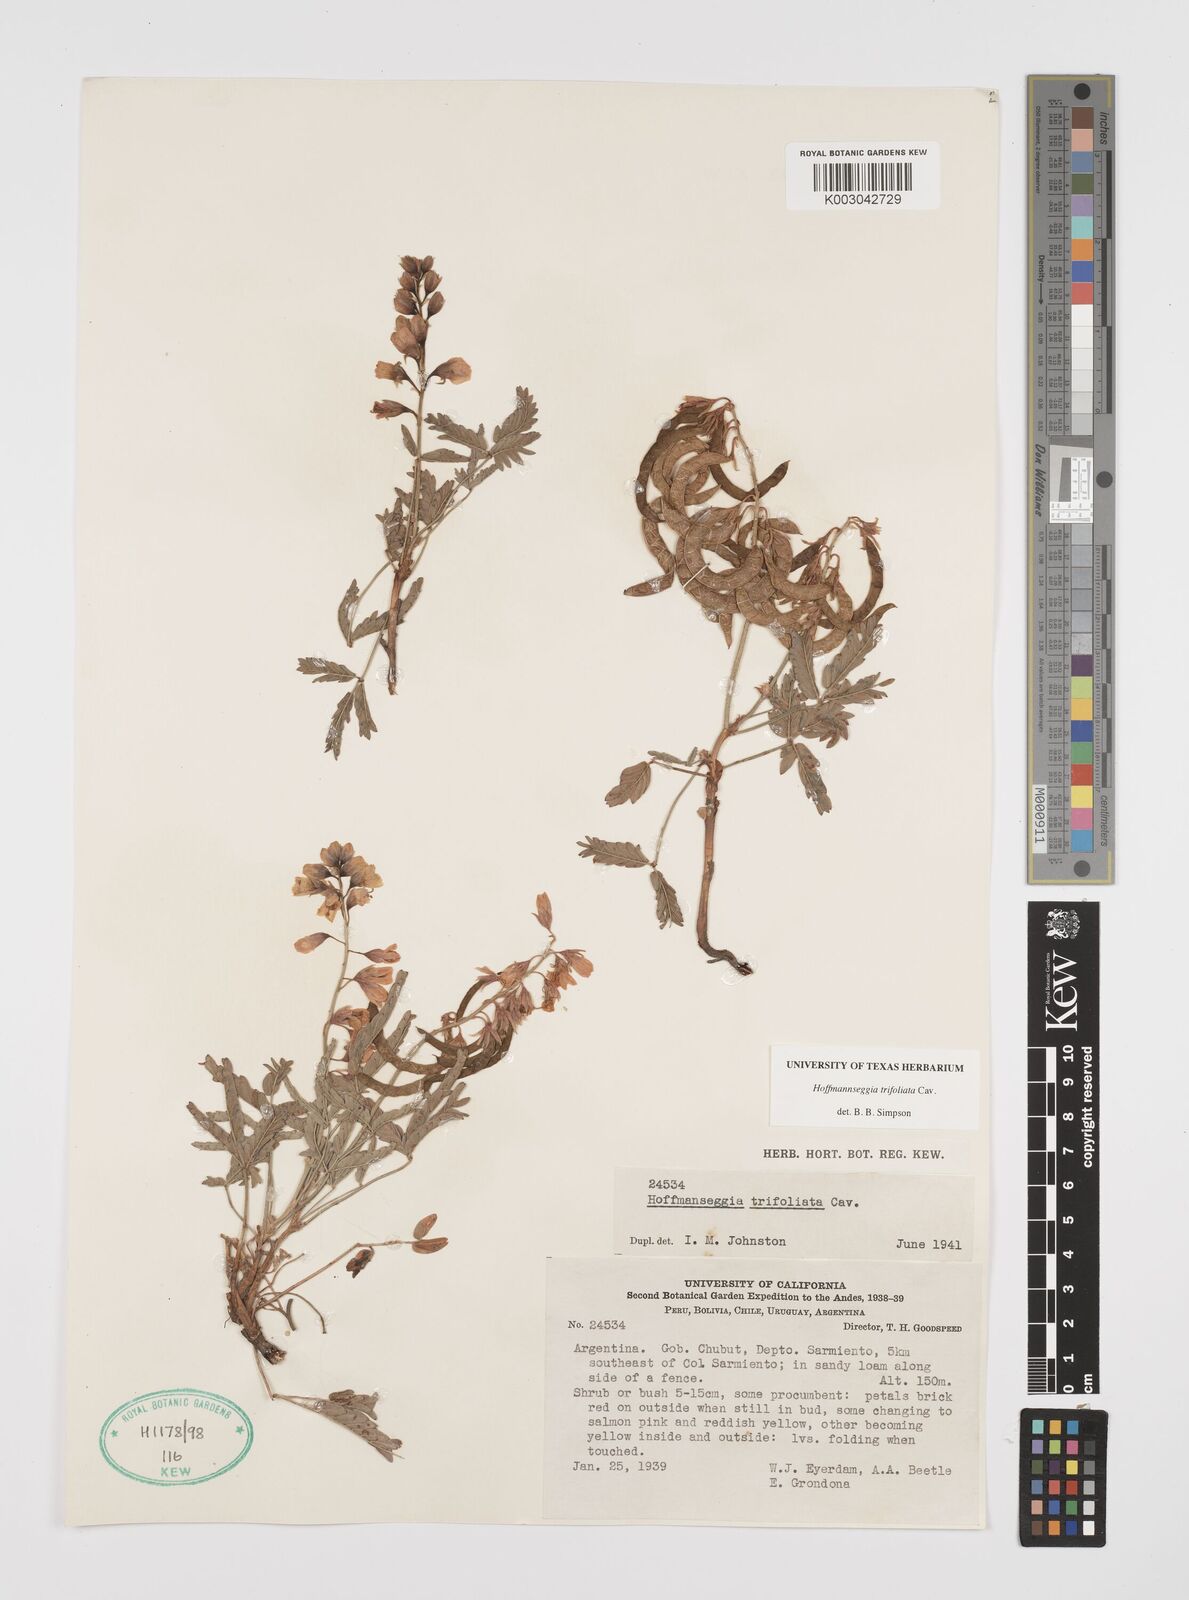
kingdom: Plantae
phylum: Tracheophyta
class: Magnoliopsida
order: Fabales
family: Fabaceae
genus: Hoffmannseggia
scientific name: Hoffmannseggia trifoliata
